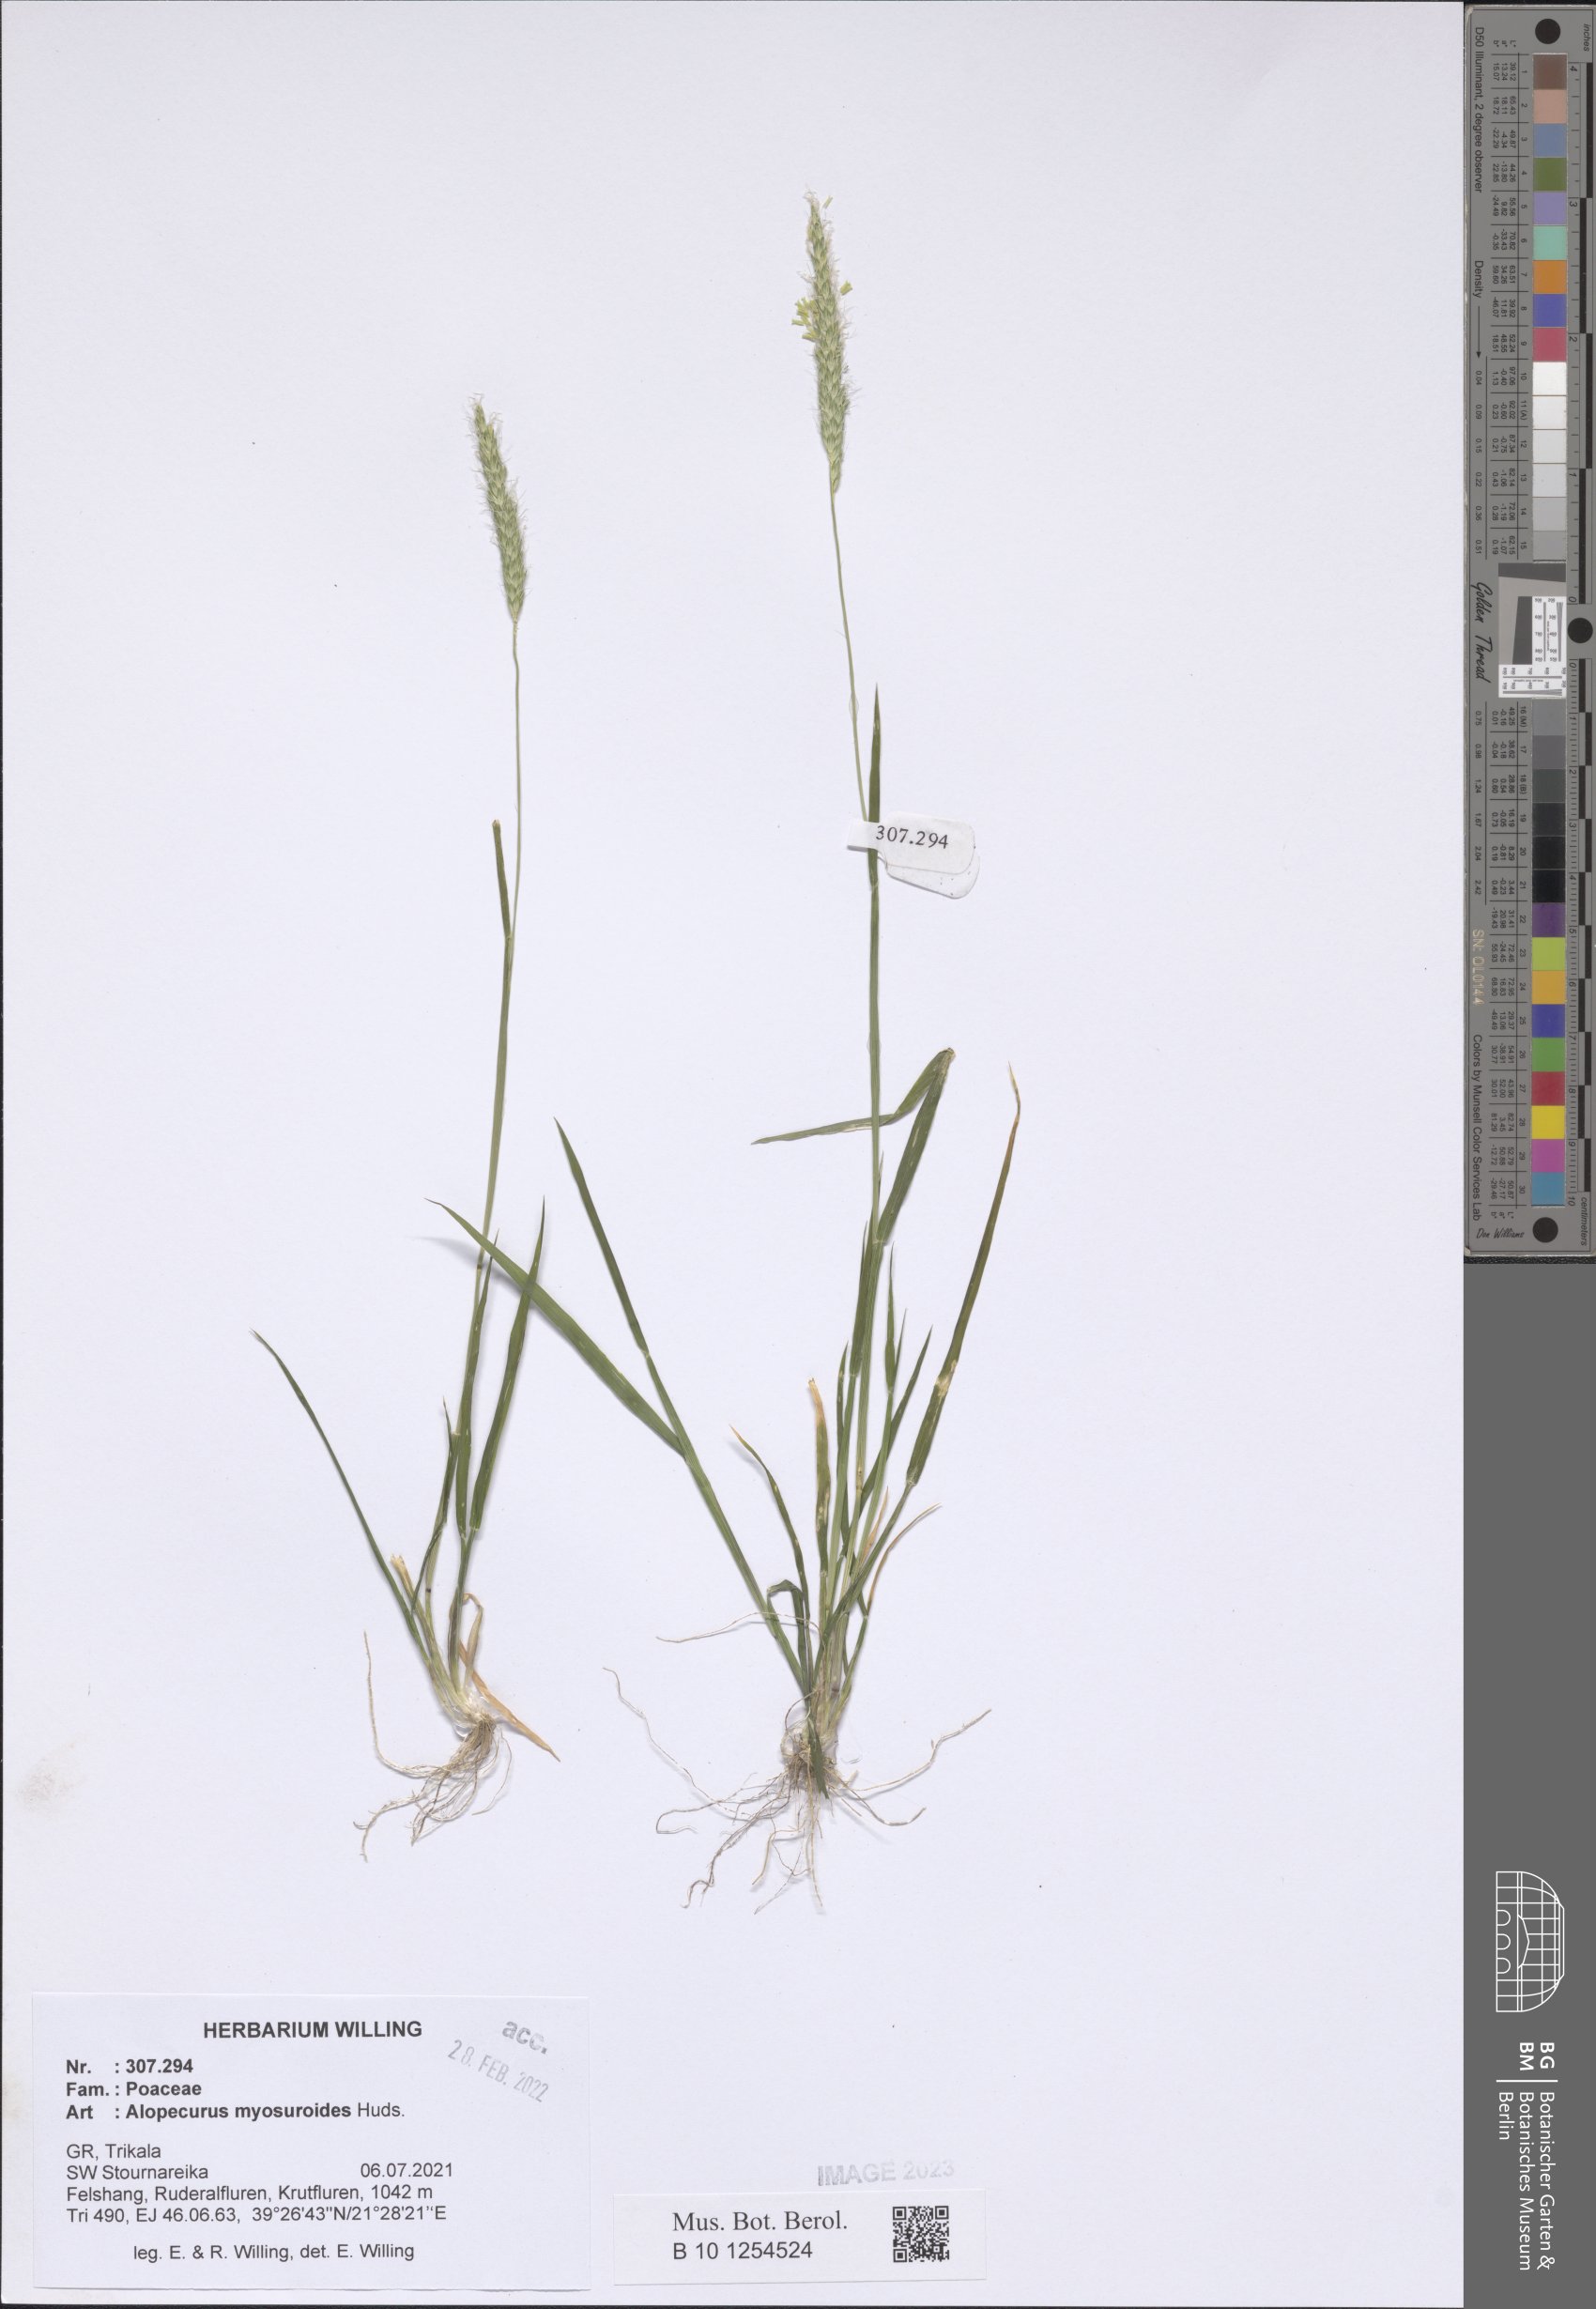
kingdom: Plantae
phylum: Tracheophyta
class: Liliopsida
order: Poales
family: Poaceae
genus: Alopecurus
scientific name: Alopecurus myosuroides
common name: Black-grass
